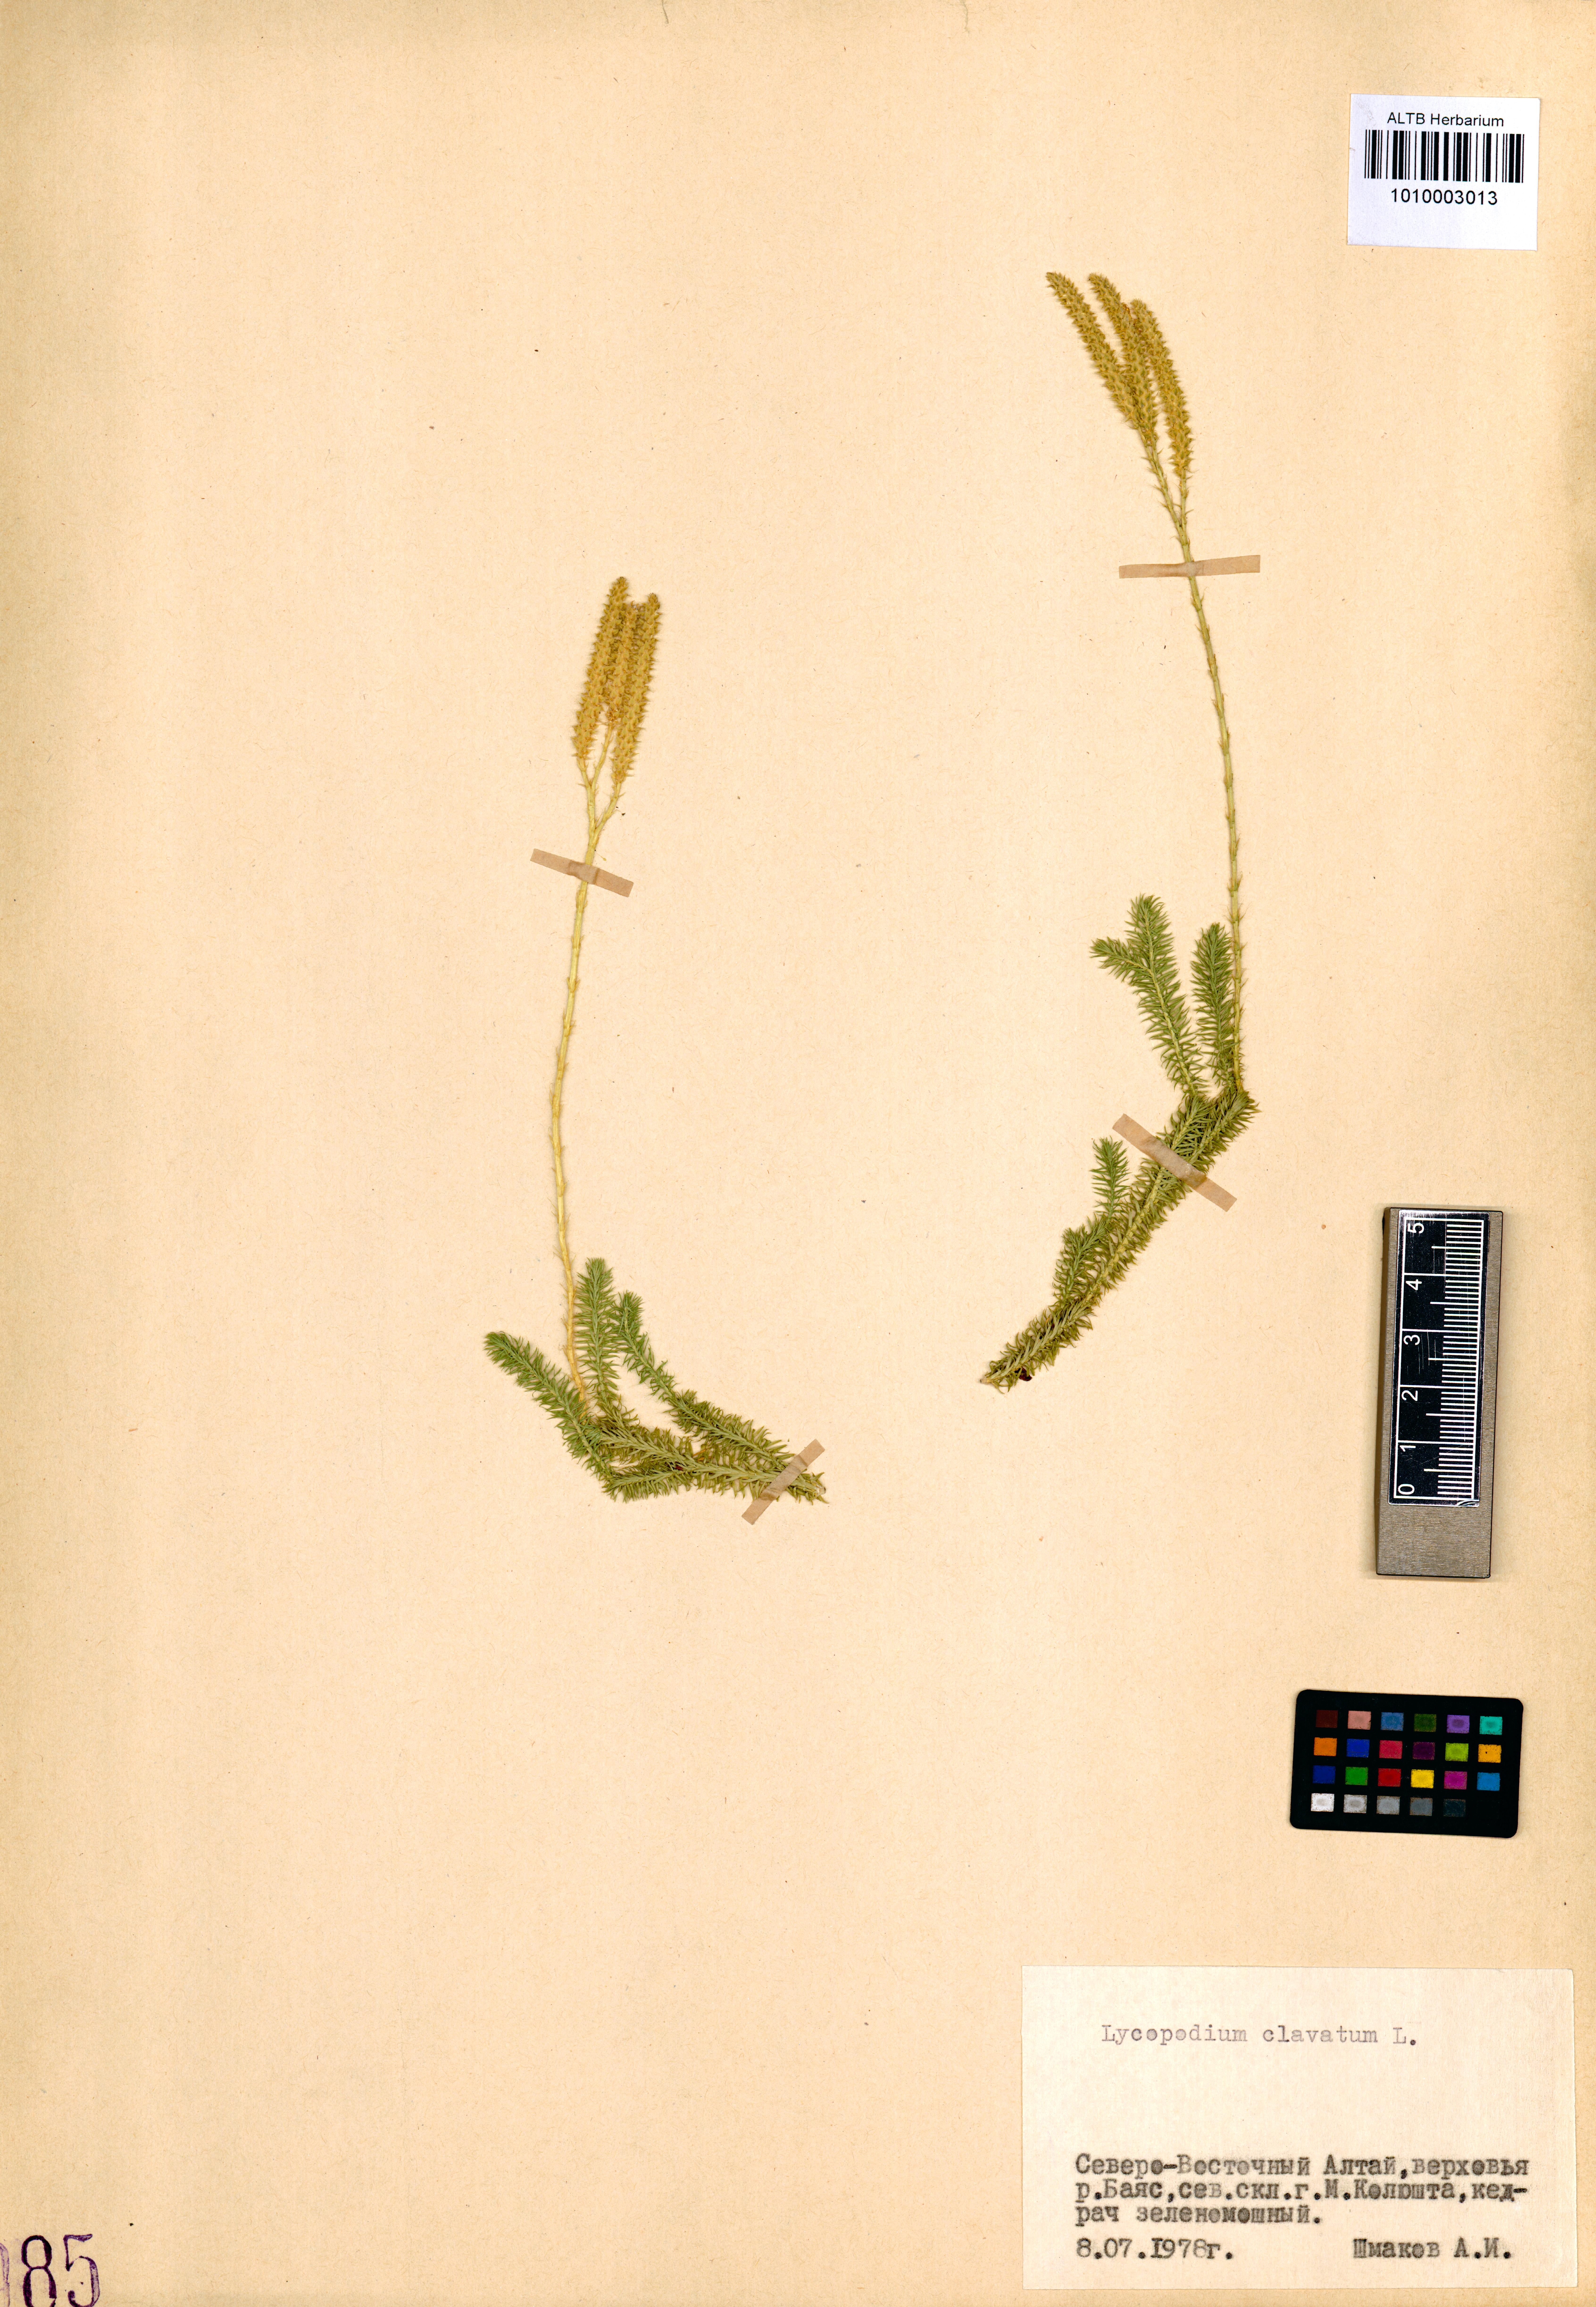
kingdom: Plantae
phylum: Tracheophyta
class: Lycopodiopsida
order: Lycopodiales
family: Lycopodiaceae
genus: Lycopodium
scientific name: Lycopodium clavatum
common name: Stag's-horn clubmoss
